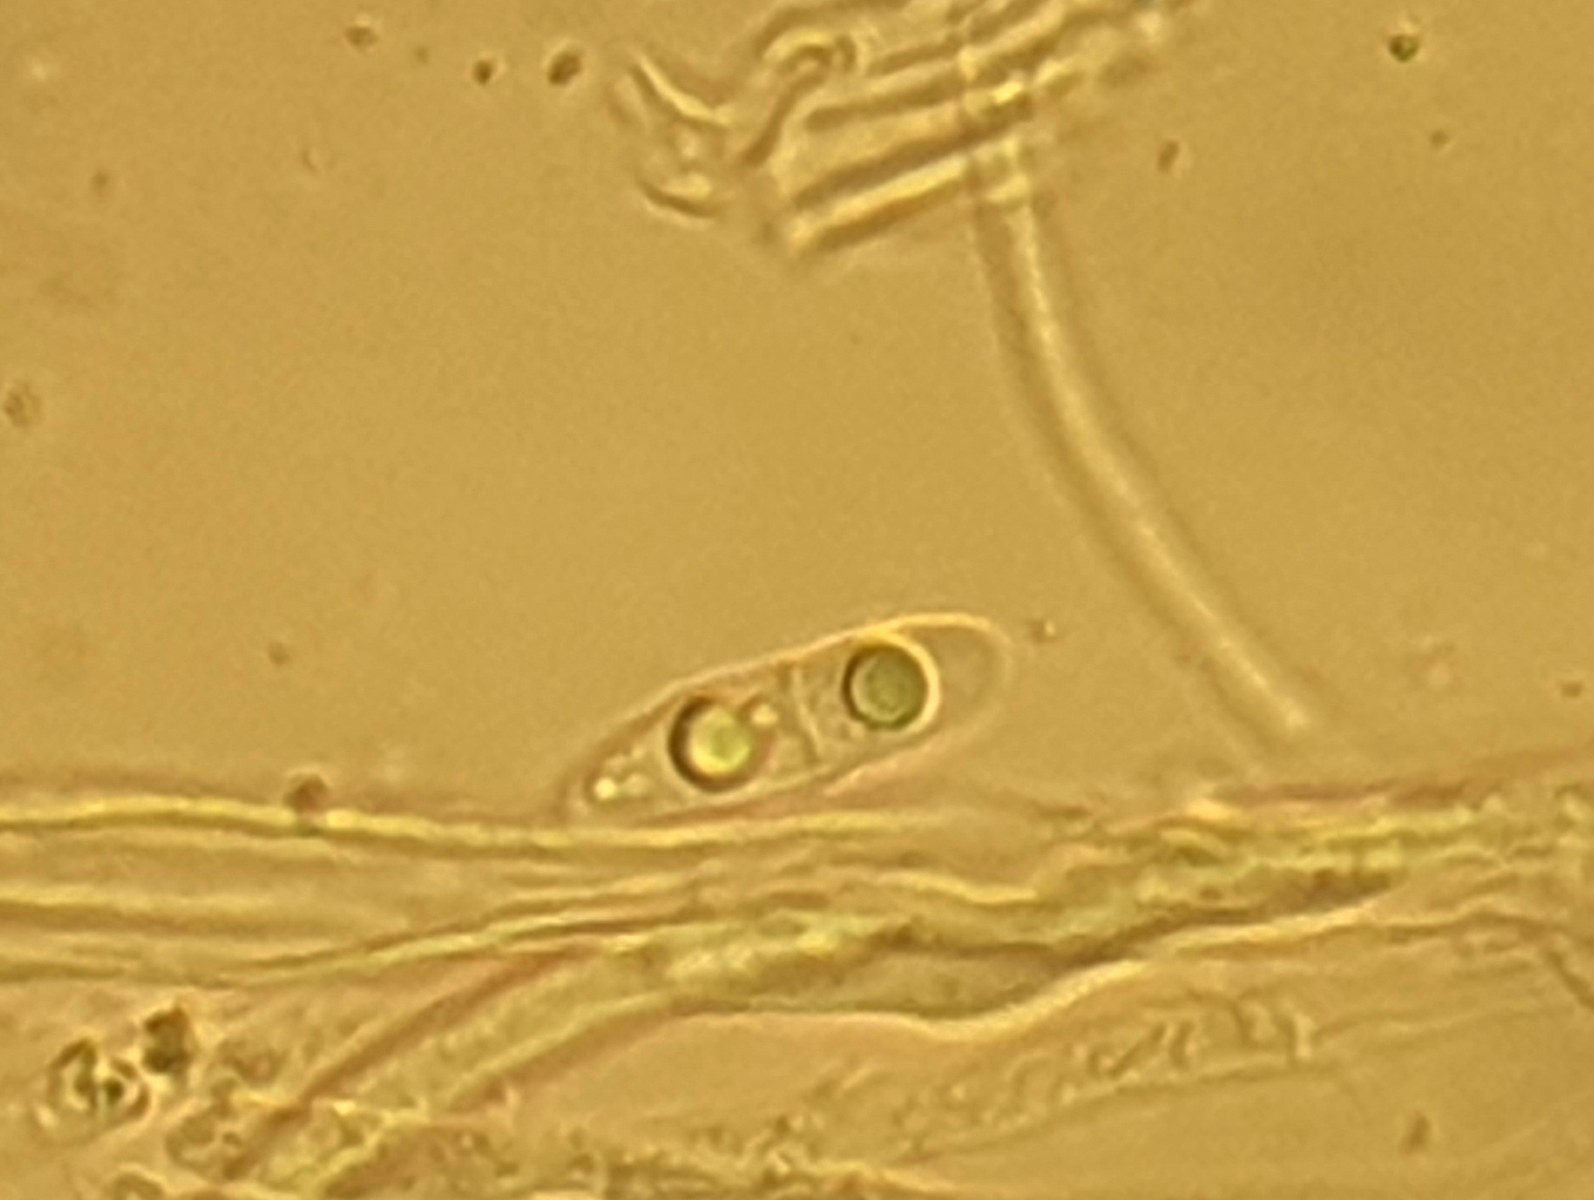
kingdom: Fungi
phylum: Ascomycota
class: Leotiomycetes
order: Helotiales
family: Helotiaceae
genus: Hymenoscyphus
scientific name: Hymenoscyphus
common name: stilkskive
